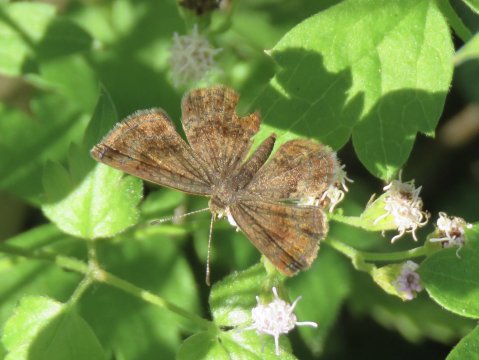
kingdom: Animalia
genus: Calephelis
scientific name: Calephelis nemesis
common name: Fatal Metalmark
